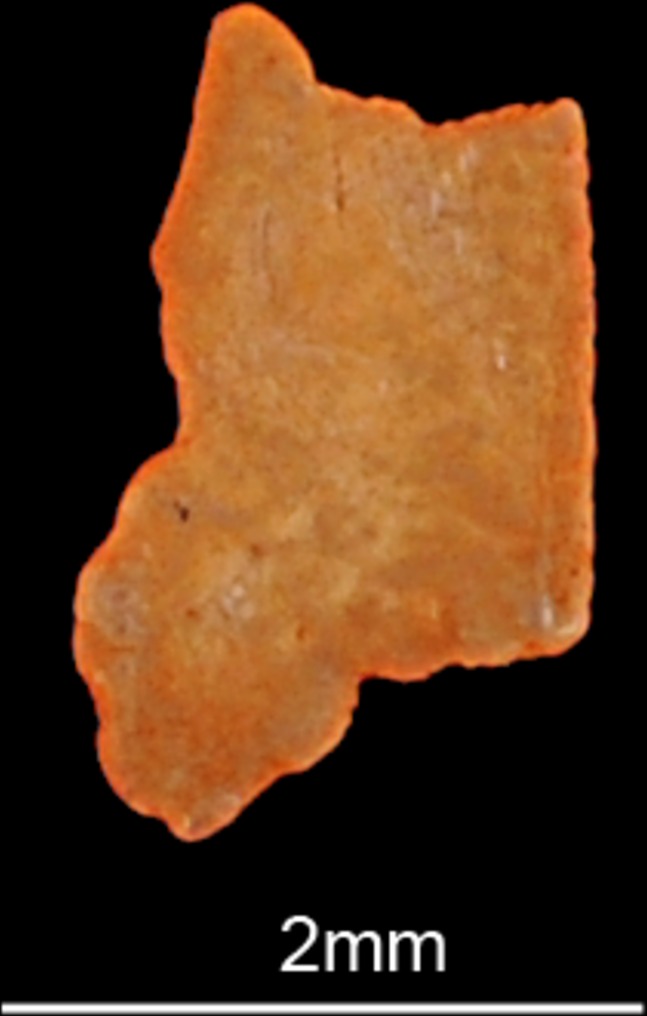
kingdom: Animalia
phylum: Chordata
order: Perciformes
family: Carangidae
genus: Scomberoides
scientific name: Scomberoides commersonnianus
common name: Talang queenfish
